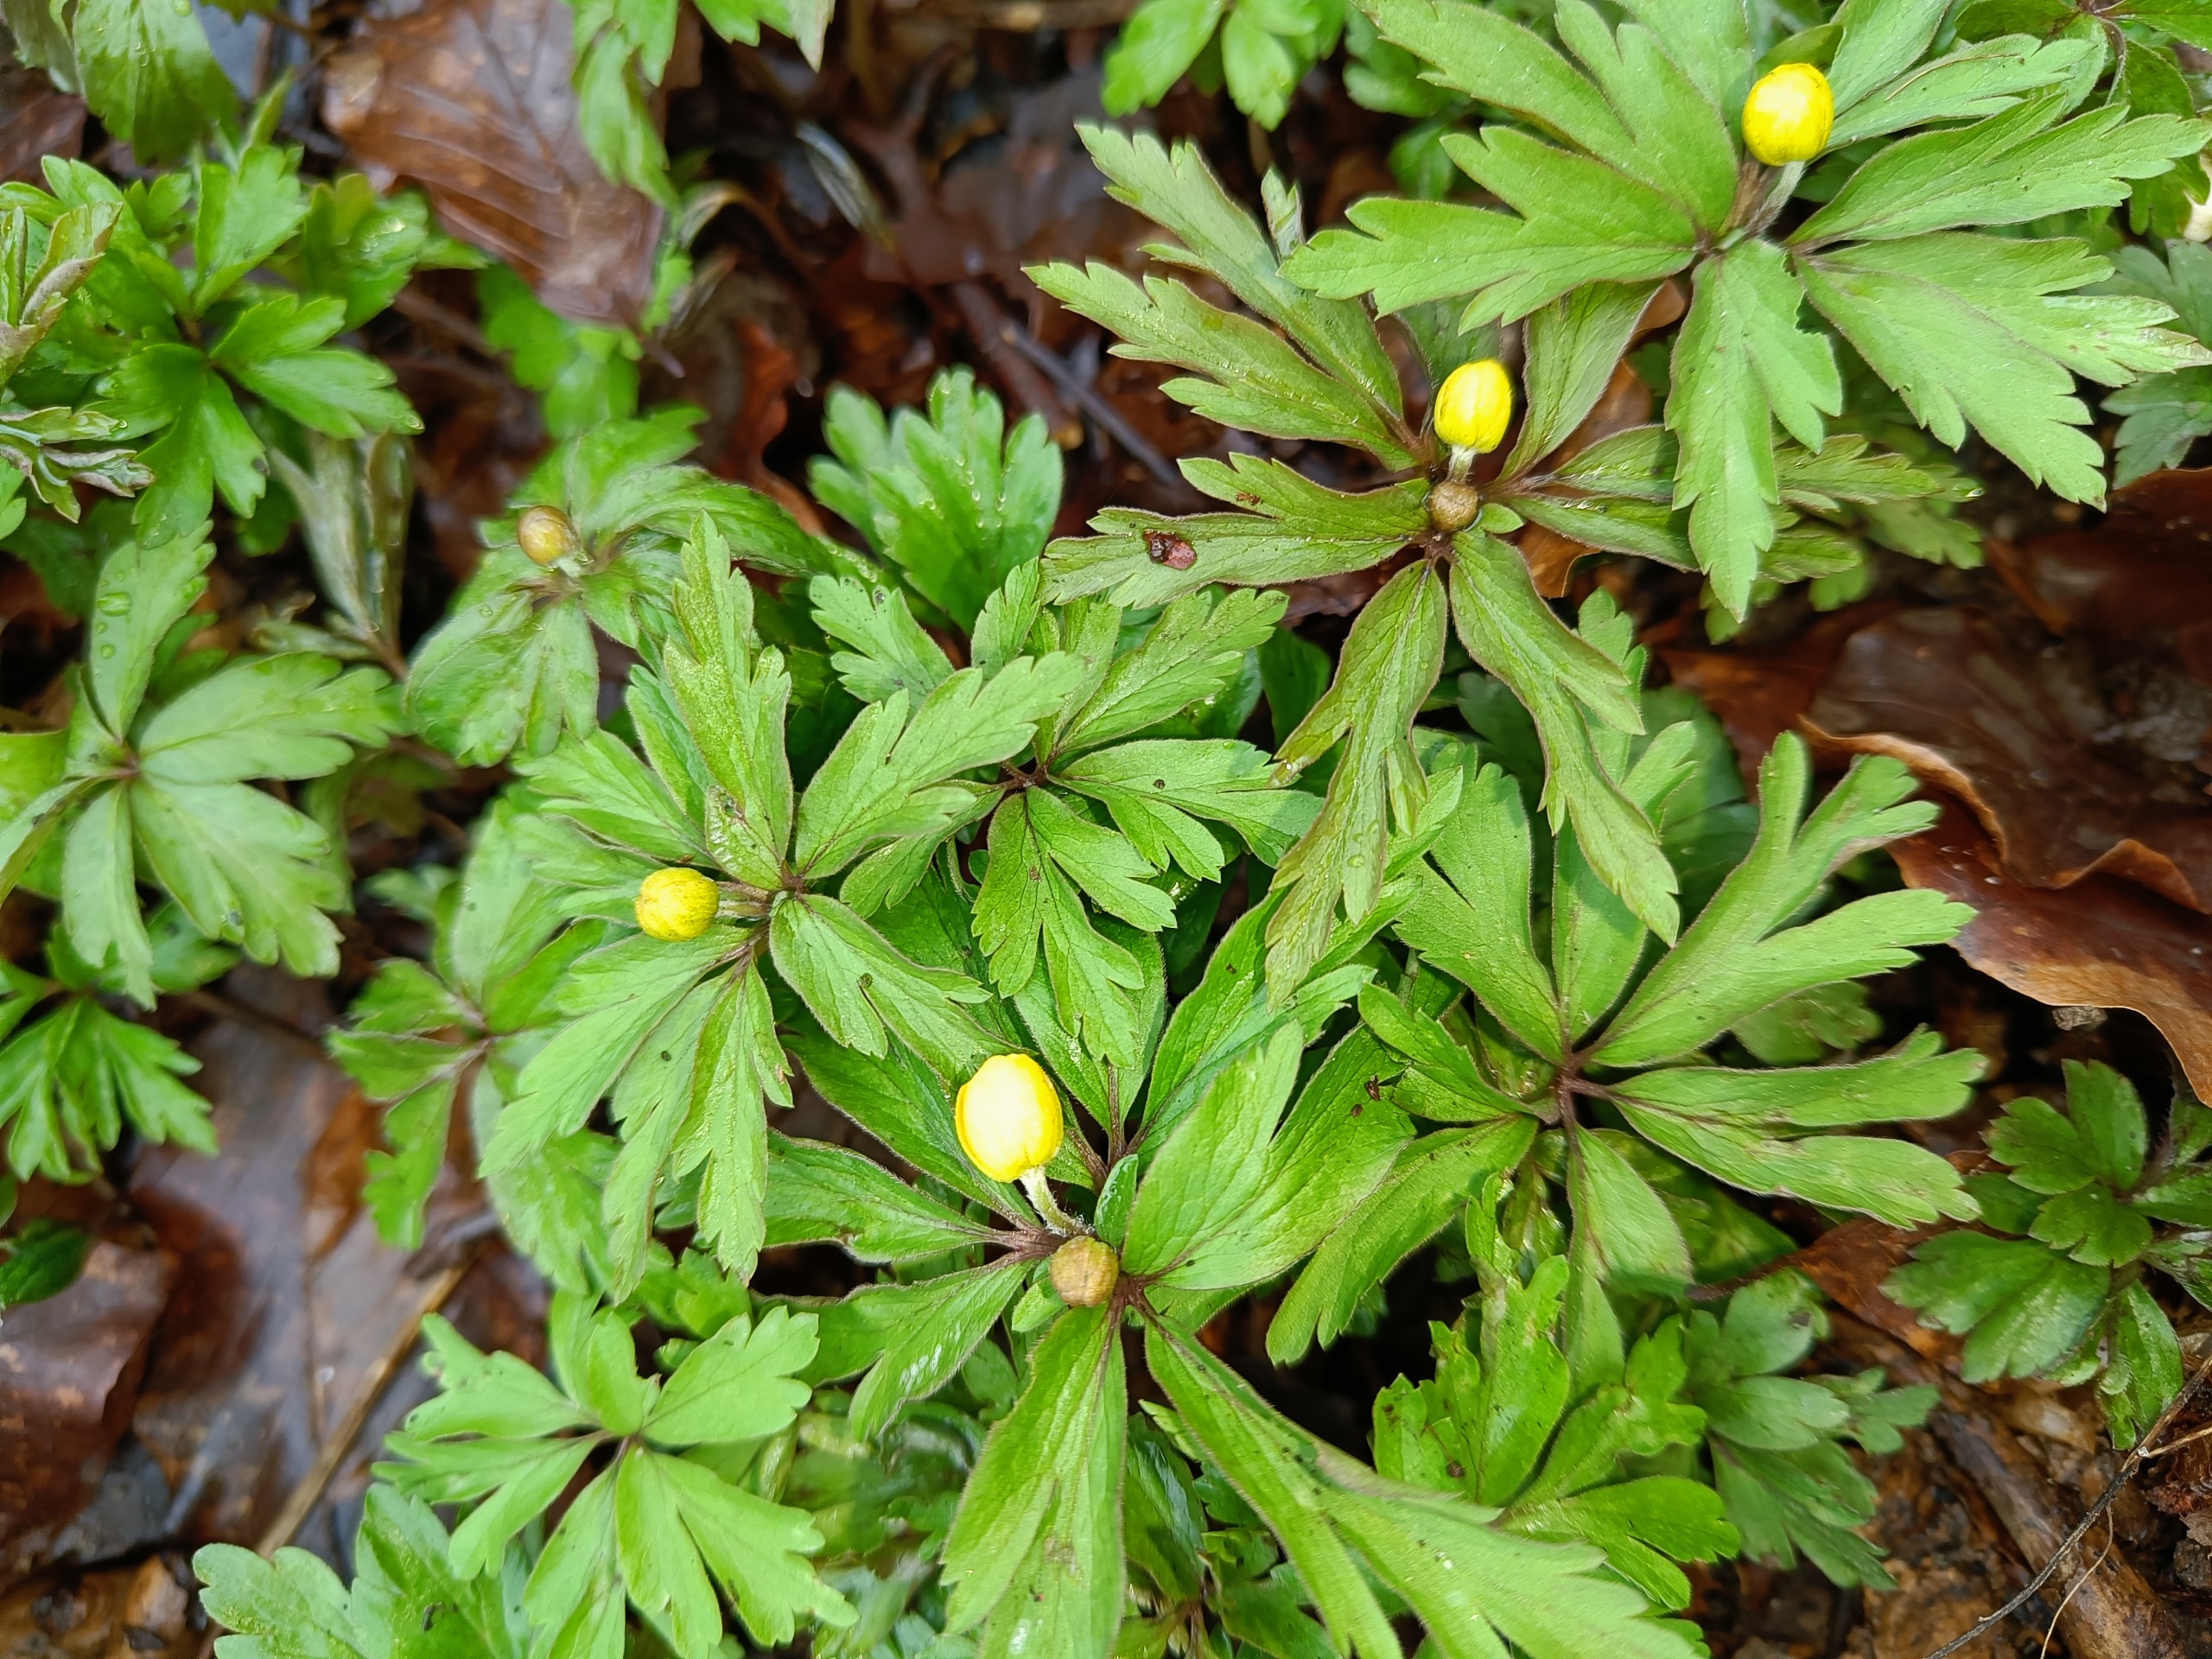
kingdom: Plantae
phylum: Tracheophyta
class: Magnoliopsida
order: Ranunculales
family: Ranunculaceae
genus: Anemone
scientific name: Anemone ranunculoides
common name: Gul anemone
